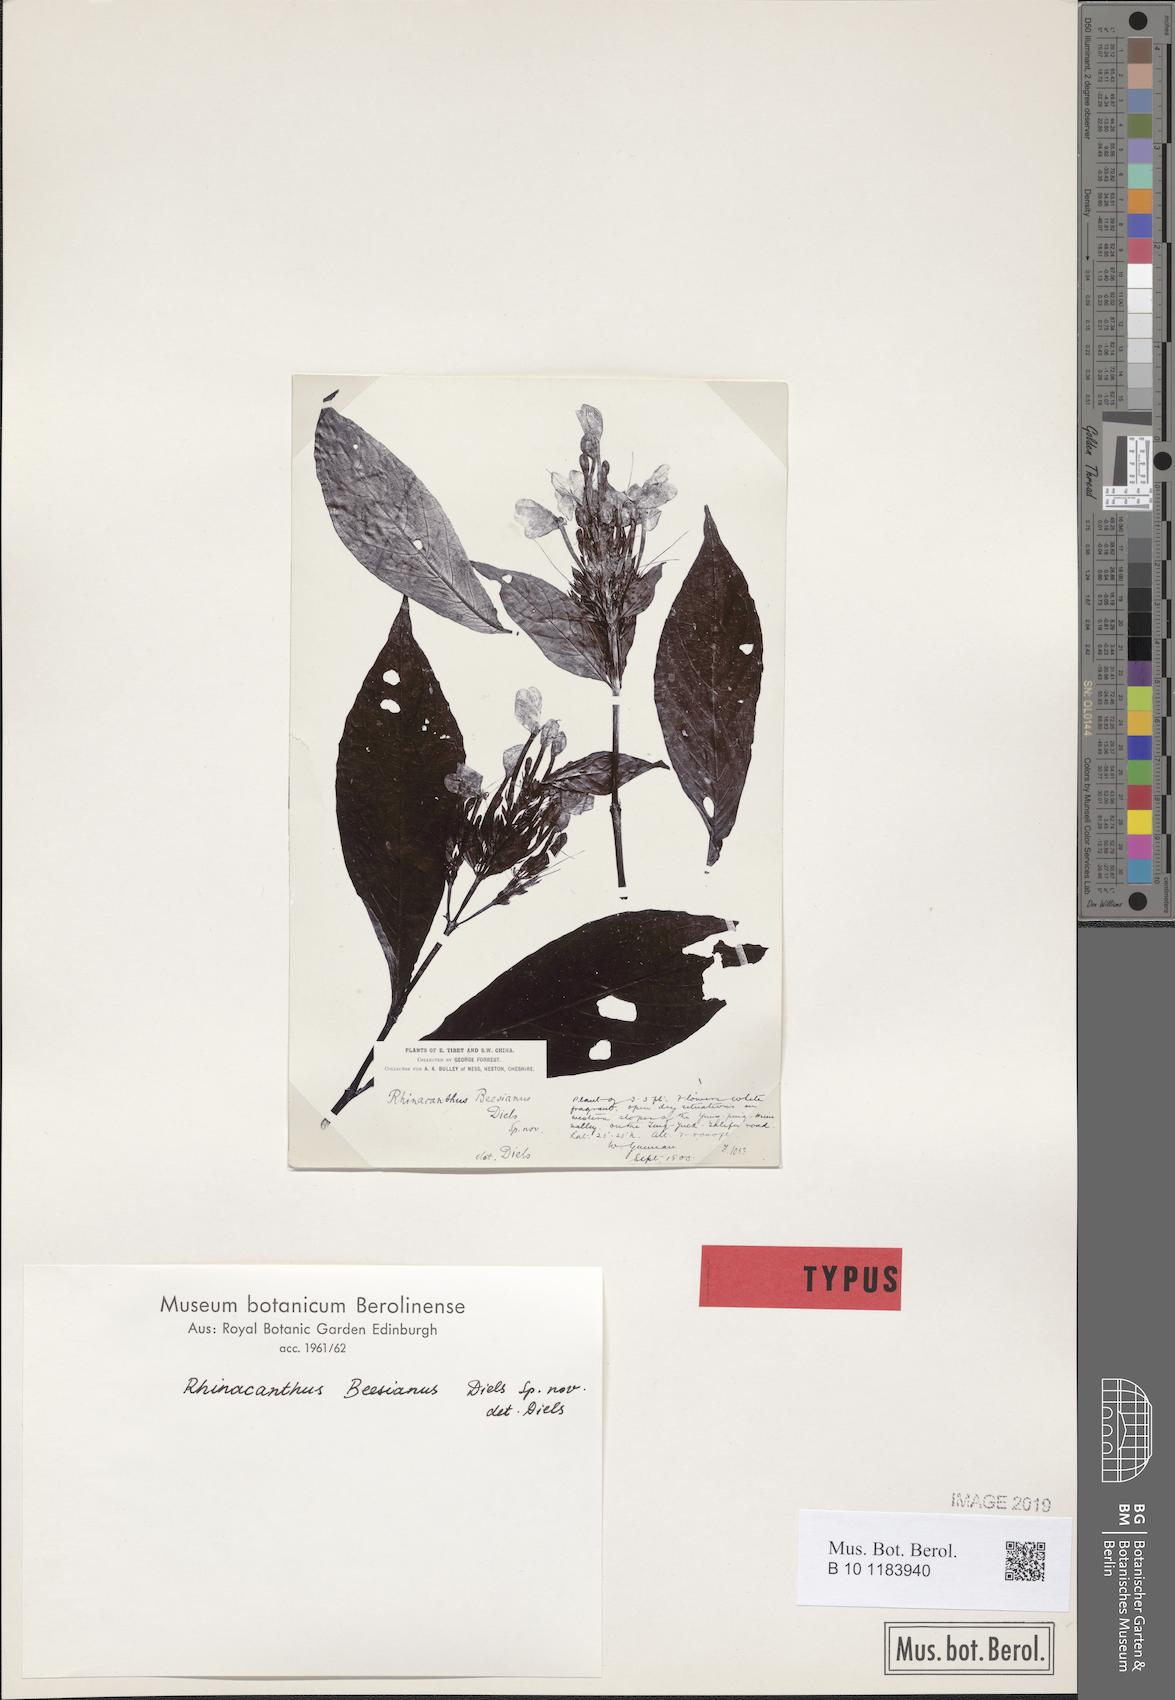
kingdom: Plantae
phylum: Tracheophyta
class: Magnoliopsida
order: Lamiales
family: Acanthaceae
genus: Rhinacanthus
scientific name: Rhinacanthus beesianus
